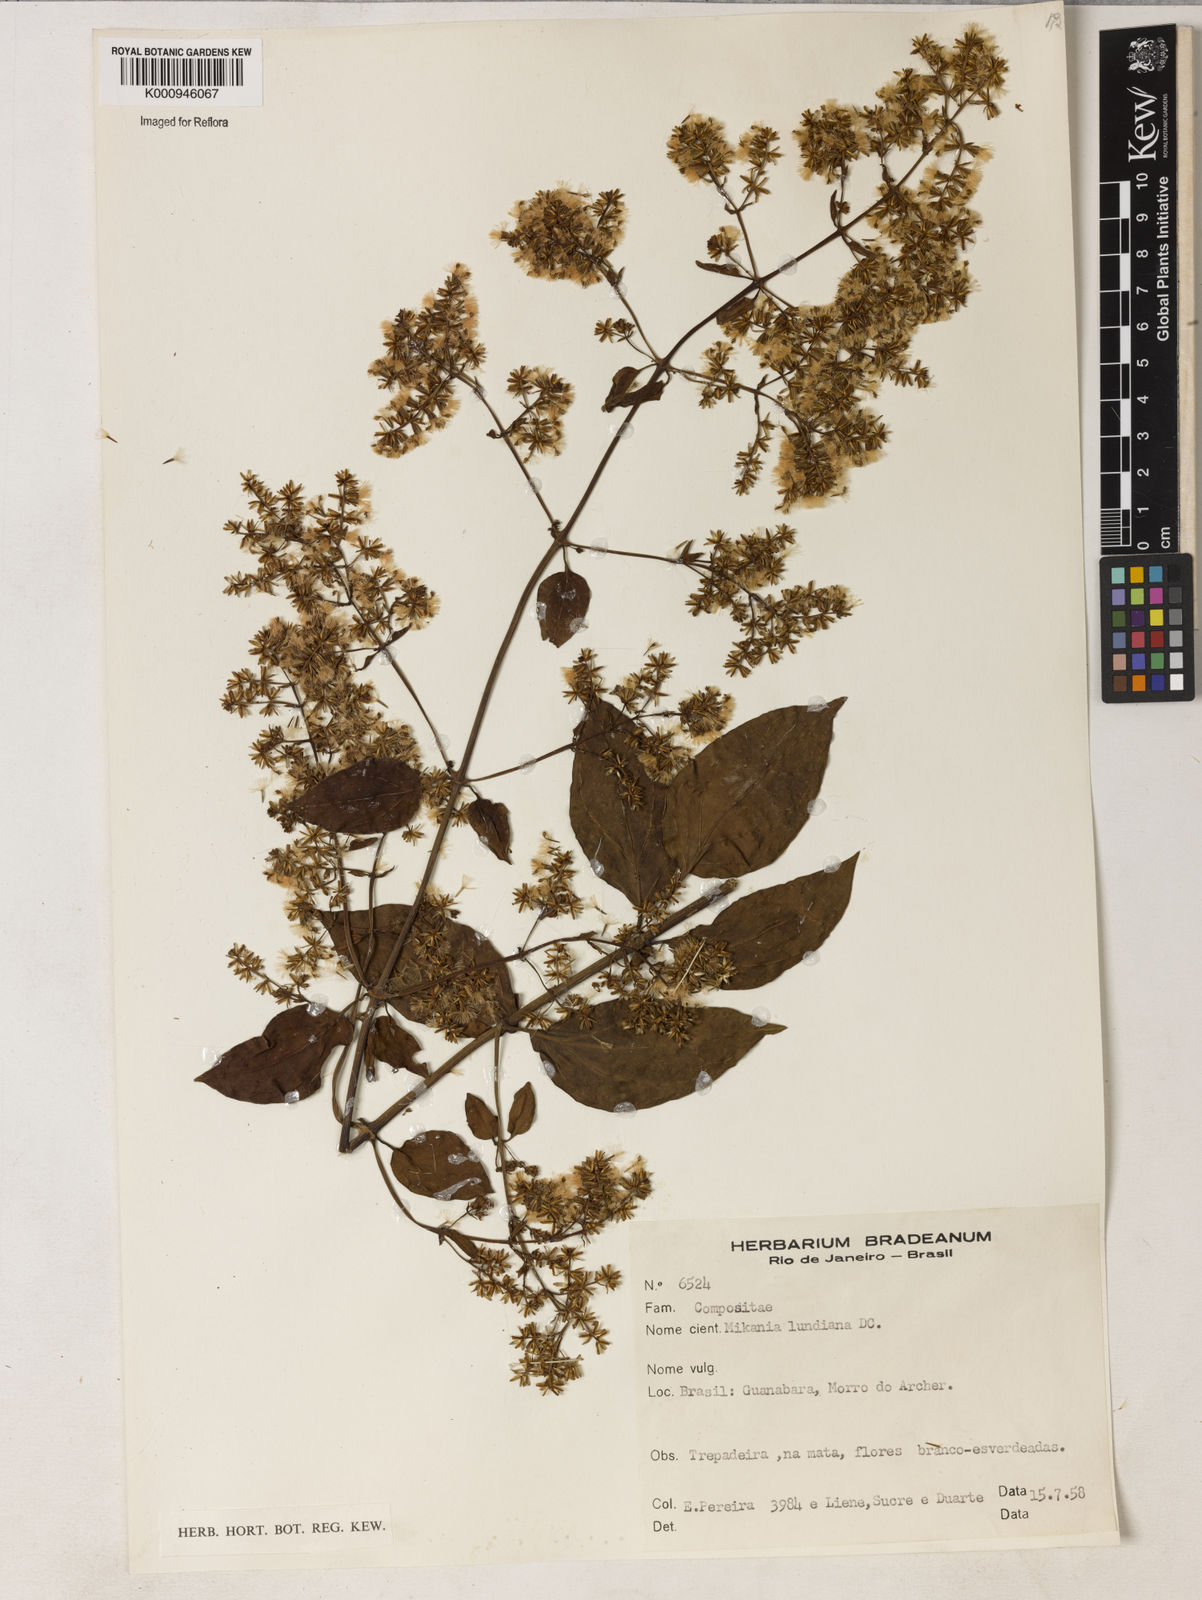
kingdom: Plantae
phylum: Tracheophyta
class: Magnoliopsida
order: Asterales
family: Asteraceae
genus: Mikania
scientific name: Mikania lundiana
